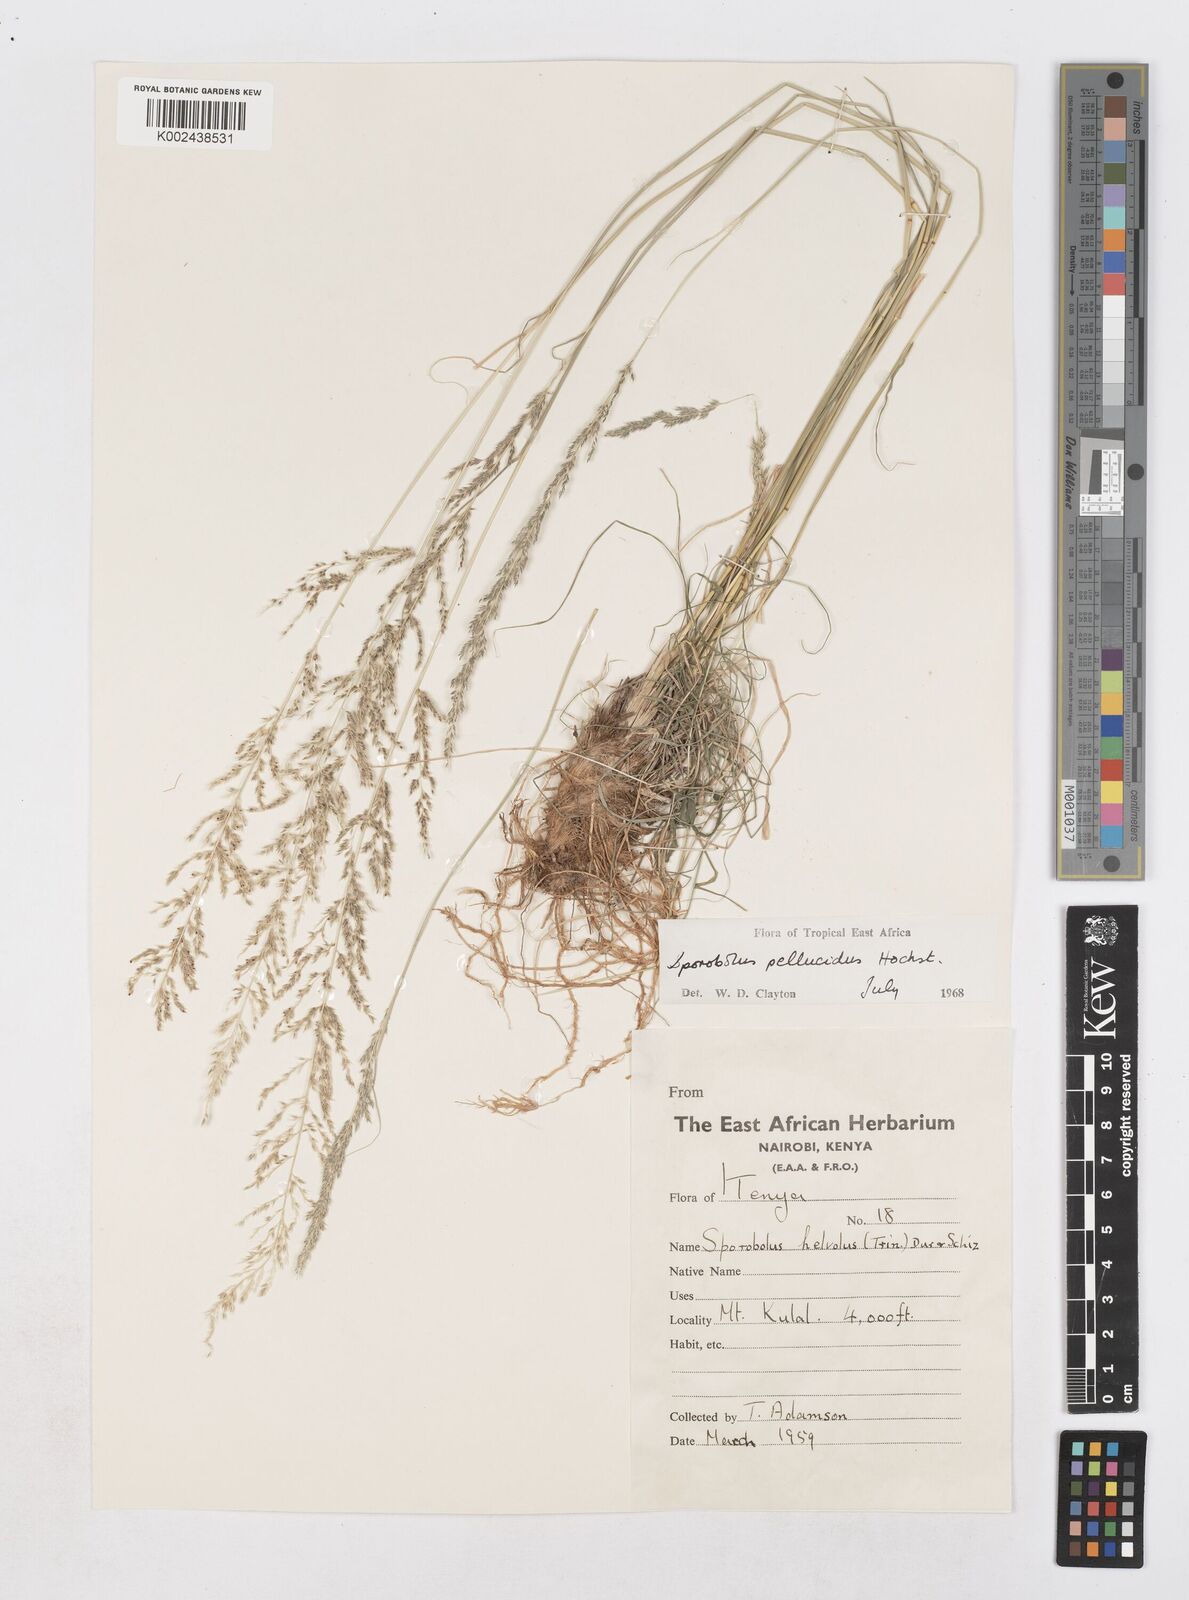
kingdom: Plantae
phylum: Tracheophyta
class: Liliopsida
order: Poales
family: Poaceae
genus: Sporobolus
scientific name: Sporobolus pellucidus
